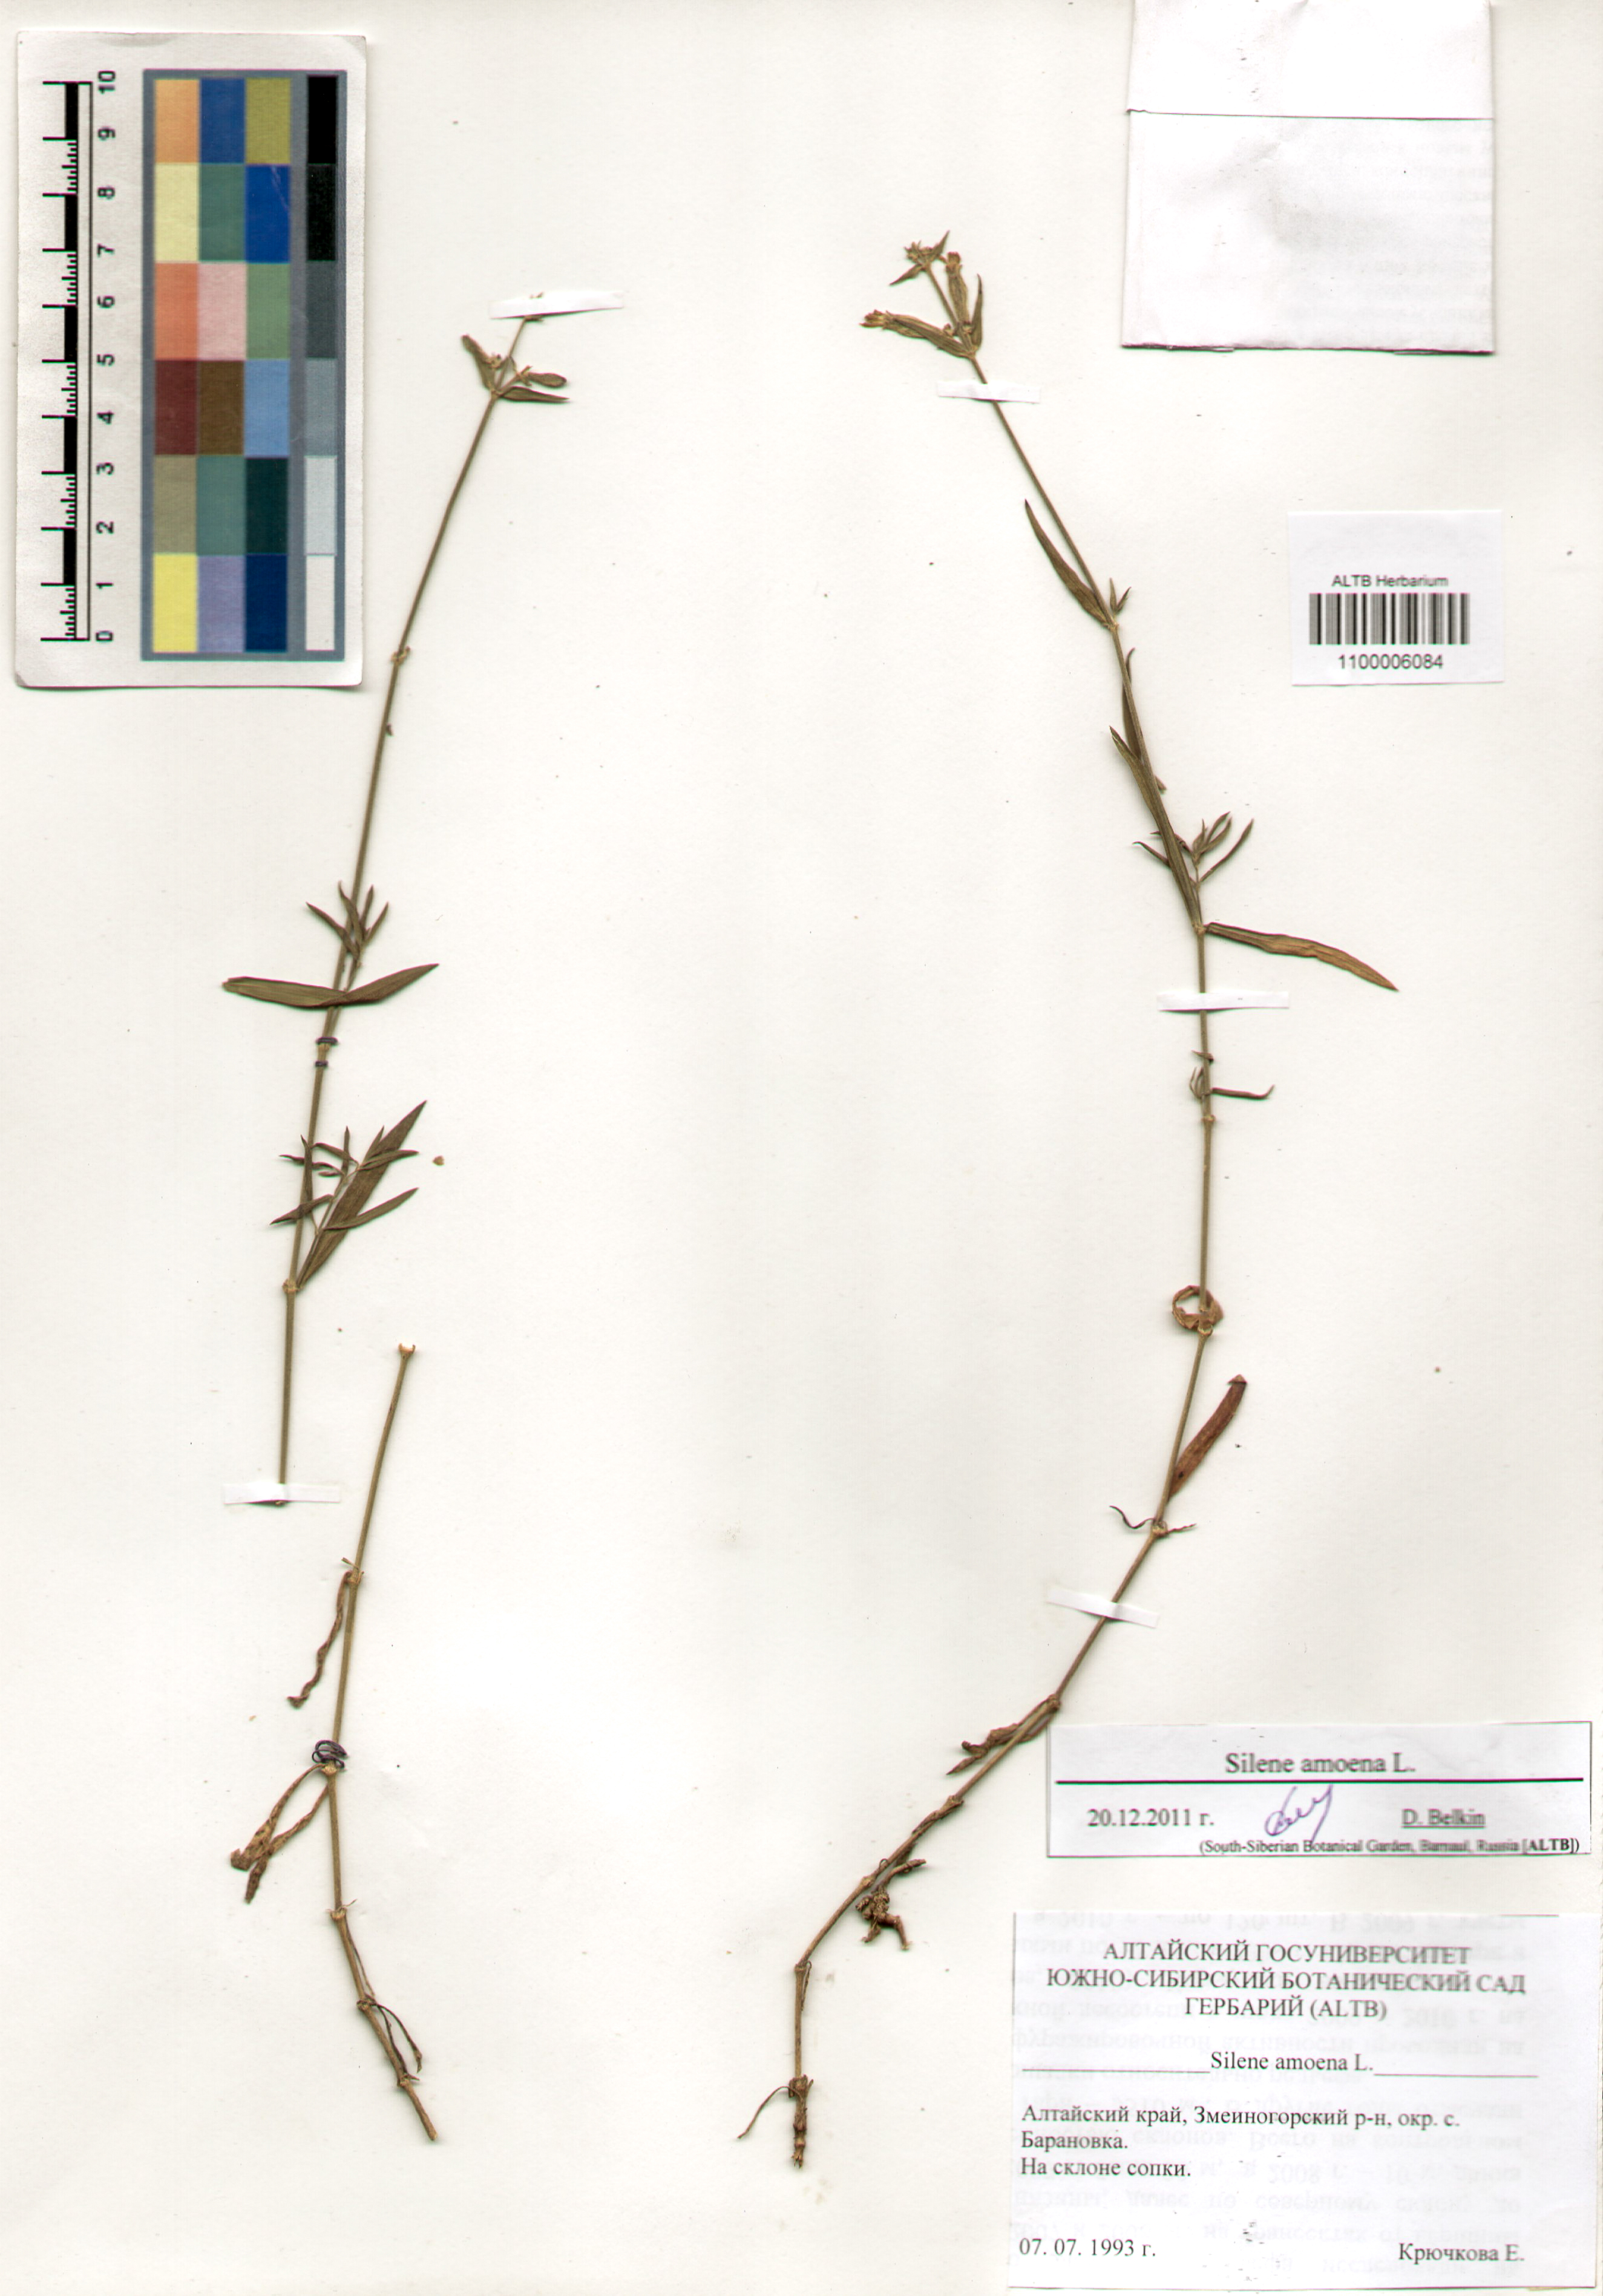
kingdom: Plantae
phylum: Tracheophyta
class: Magnoliopsida
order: Caryophyllales
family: Caryophyllaceae
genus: Silene
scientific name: Silene amoena
